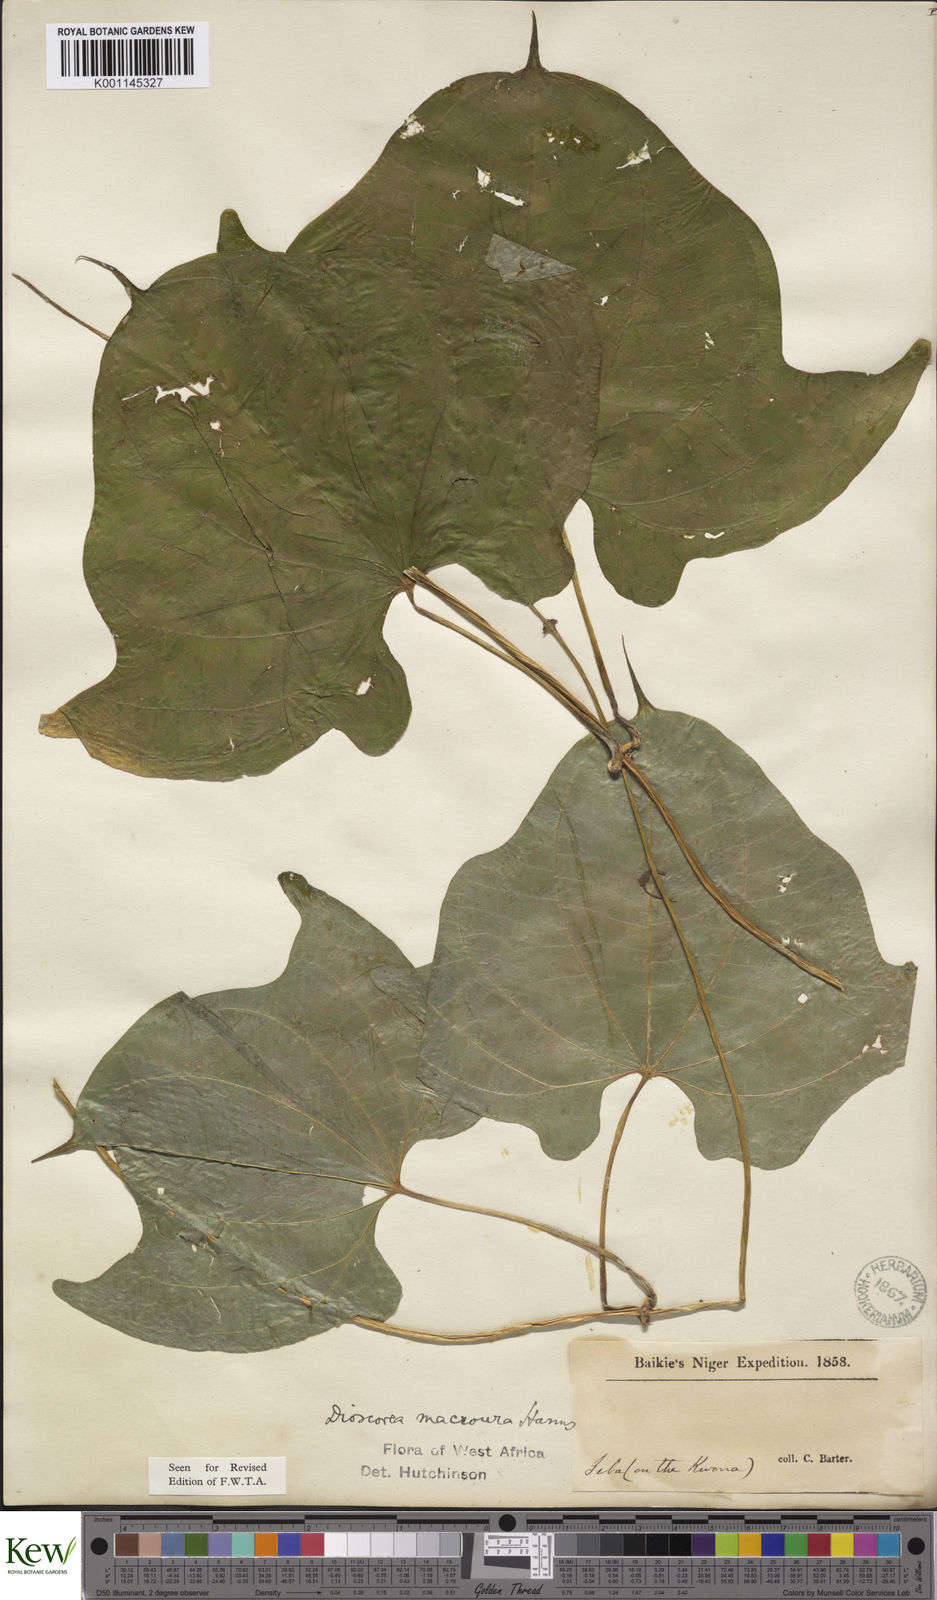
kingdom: Plantae
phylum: Tracheophyta
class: Liliopsida
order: Dioscoreales
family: Dioscoreaceae
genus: Dioscorea
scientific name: Dioscorea sansibarensis
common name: Zanzibar yam
